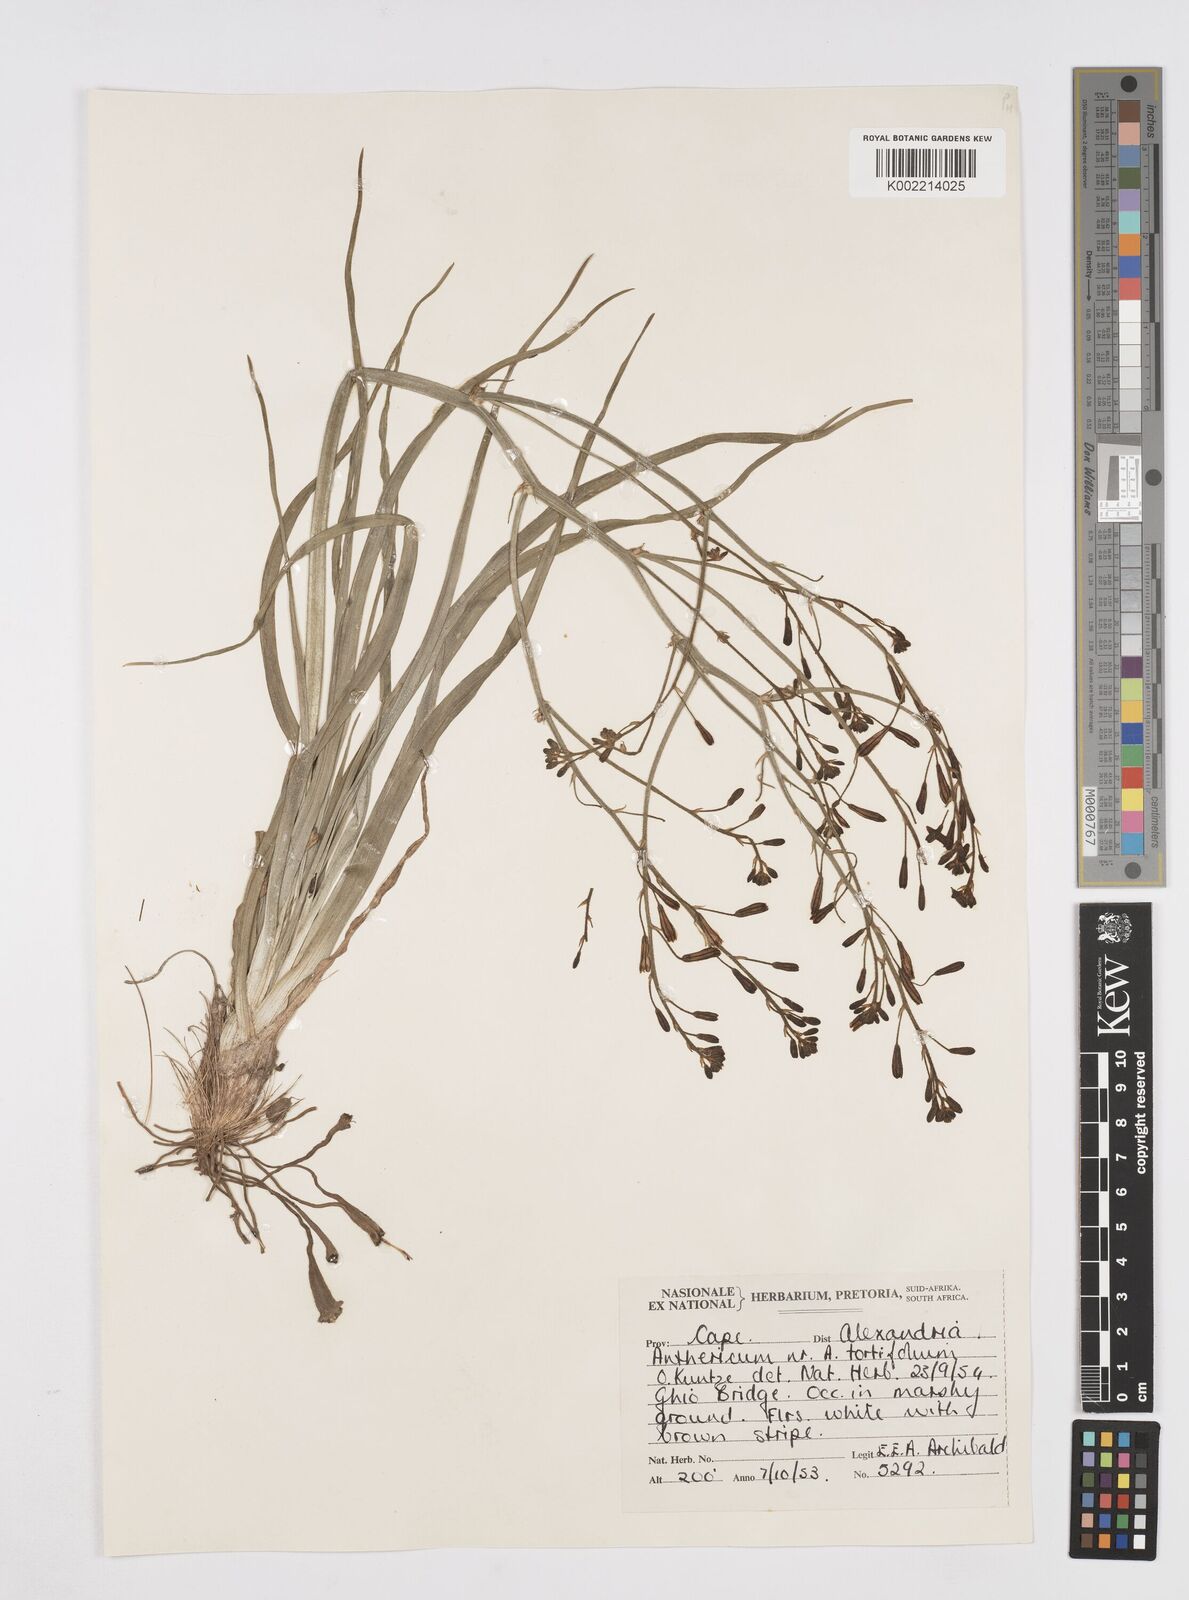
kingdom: Plantae
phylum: Tracheophyta
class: Liliopsida
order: Asparagales
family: Asphodelaceae
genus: Trachyandra
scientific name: Trachyandra gerrardii
